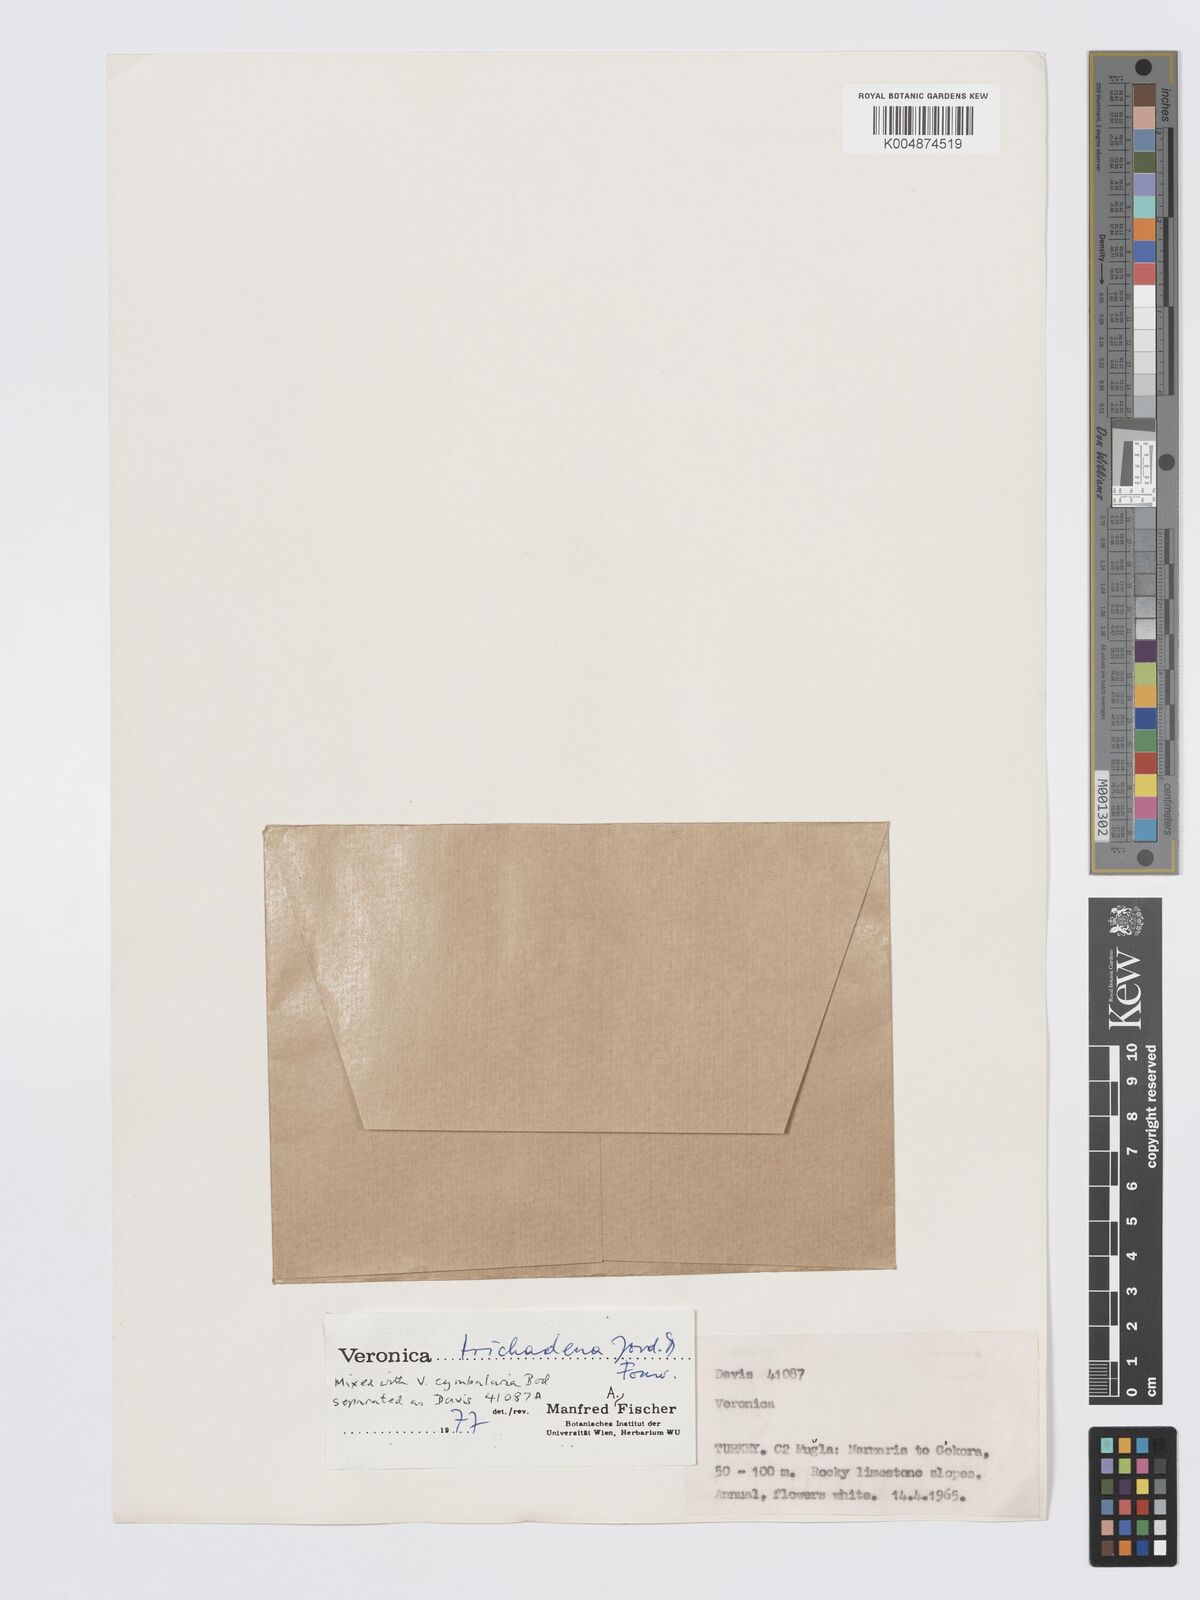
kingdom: Plantae
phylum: Tracheophyta
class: Magnoliopsida
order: Lamiales
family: Plantaginaceae
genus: Veronica
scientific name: Veronica trichadena
